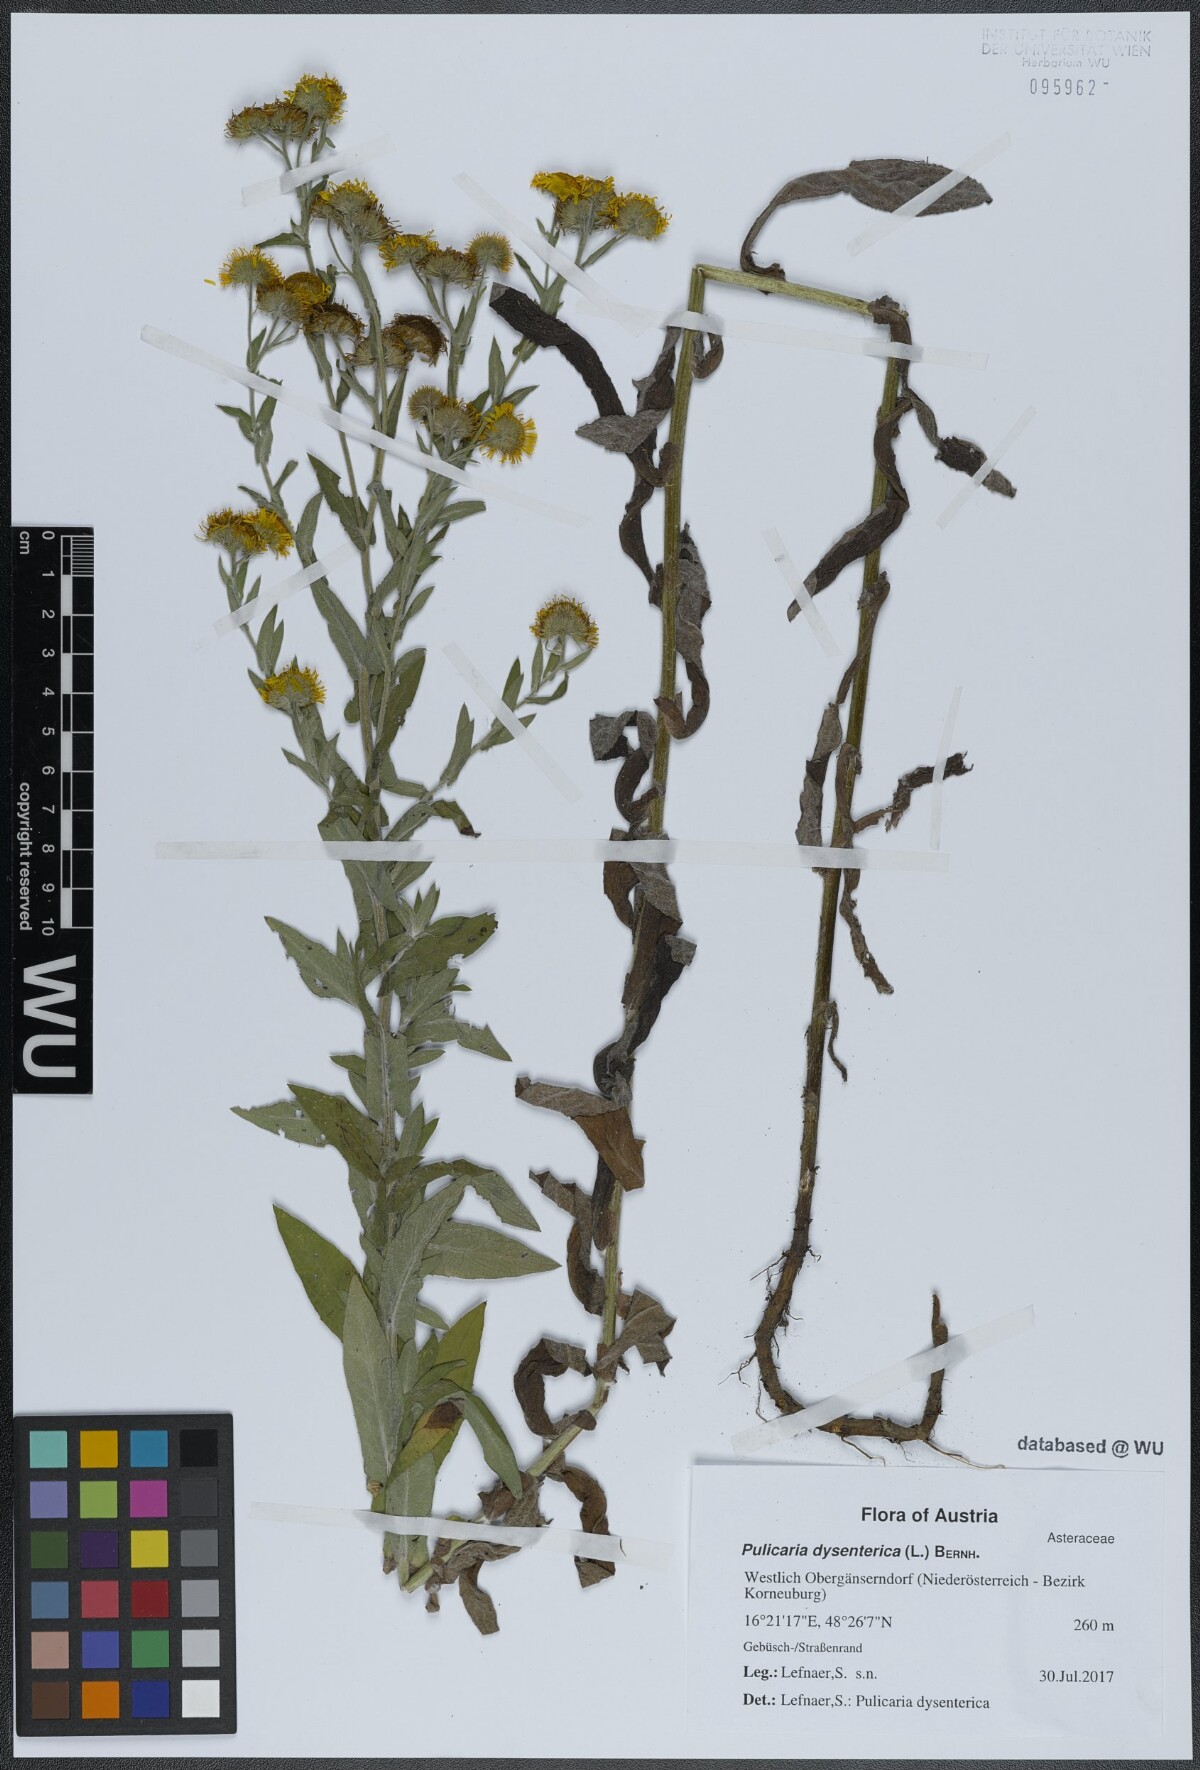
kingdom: Plantae
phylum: Tracheophyta
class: Magnoliopsida
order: Asterales
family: Asteraceae
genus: Pulicaria
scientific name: Pulicaria dysenterica
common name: Common fleabane
